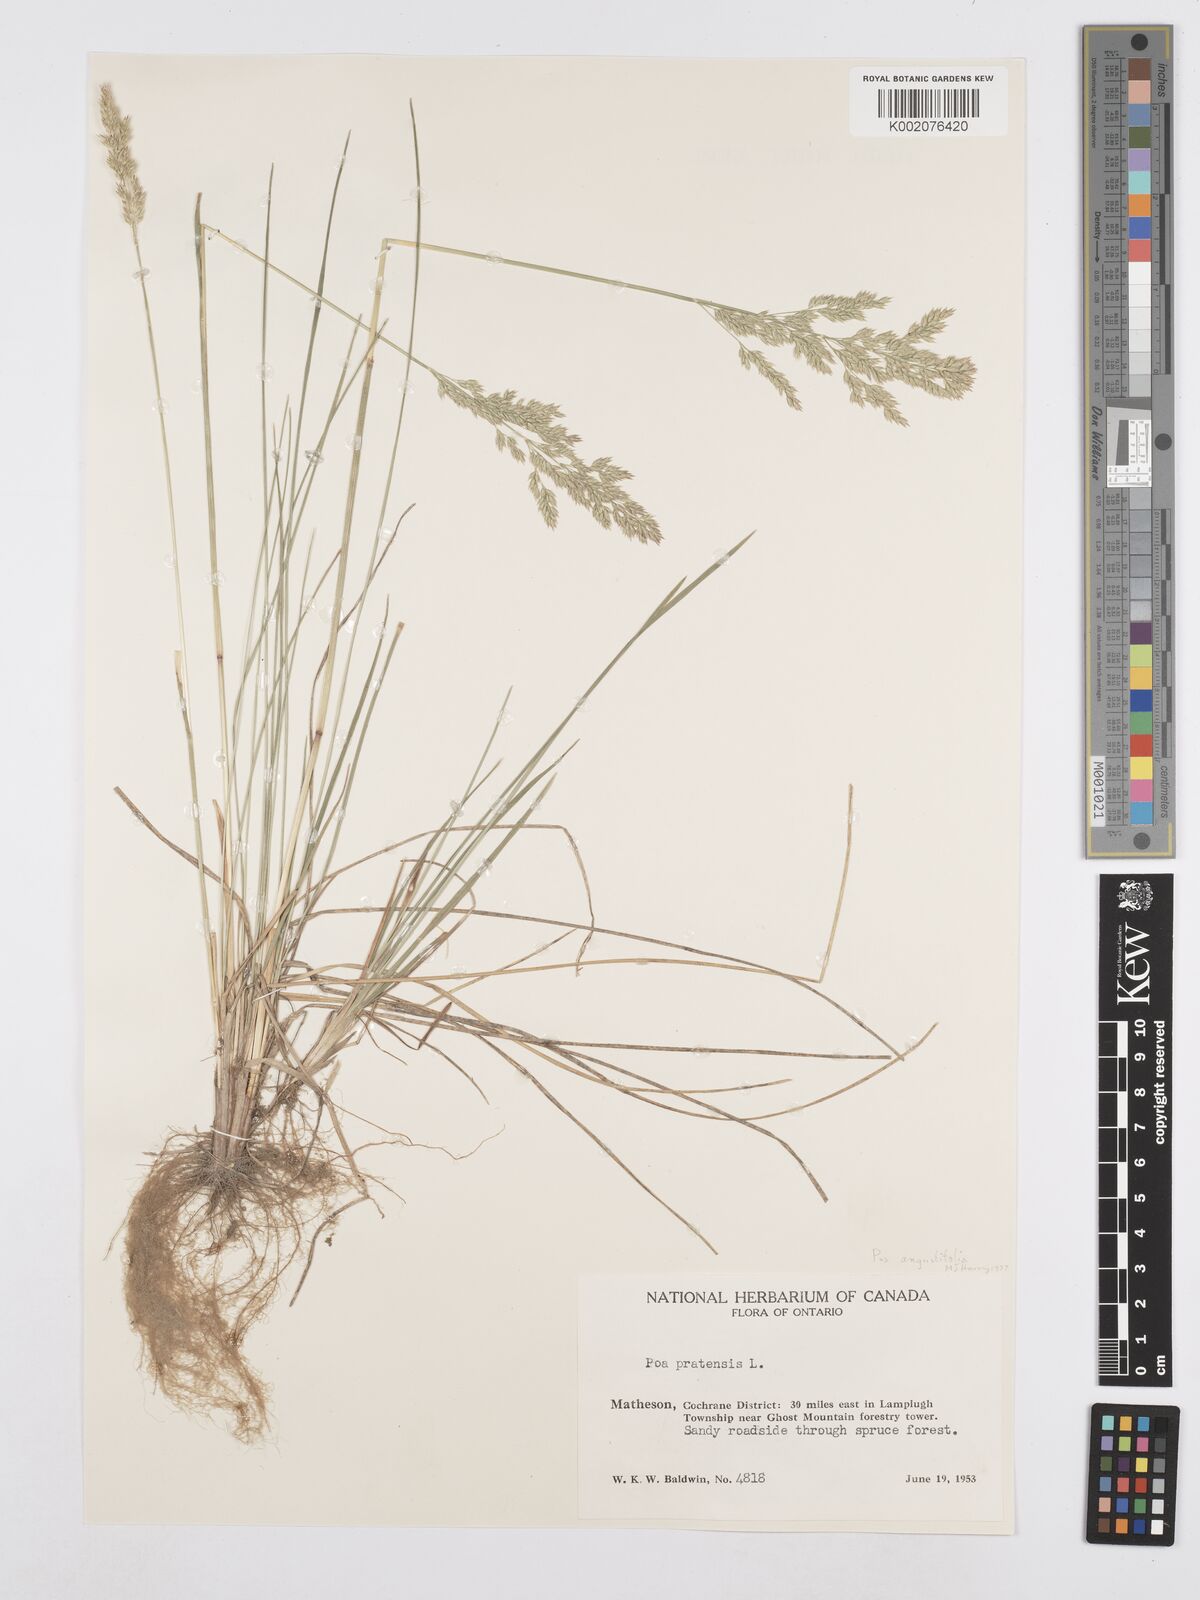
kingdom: Plantae
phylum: Tracheophyta
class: Liliopsida
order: Poales
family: Poaceae
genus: Poa
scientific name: Poa angustifolia
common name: Narrow-leaved meadow-grass
